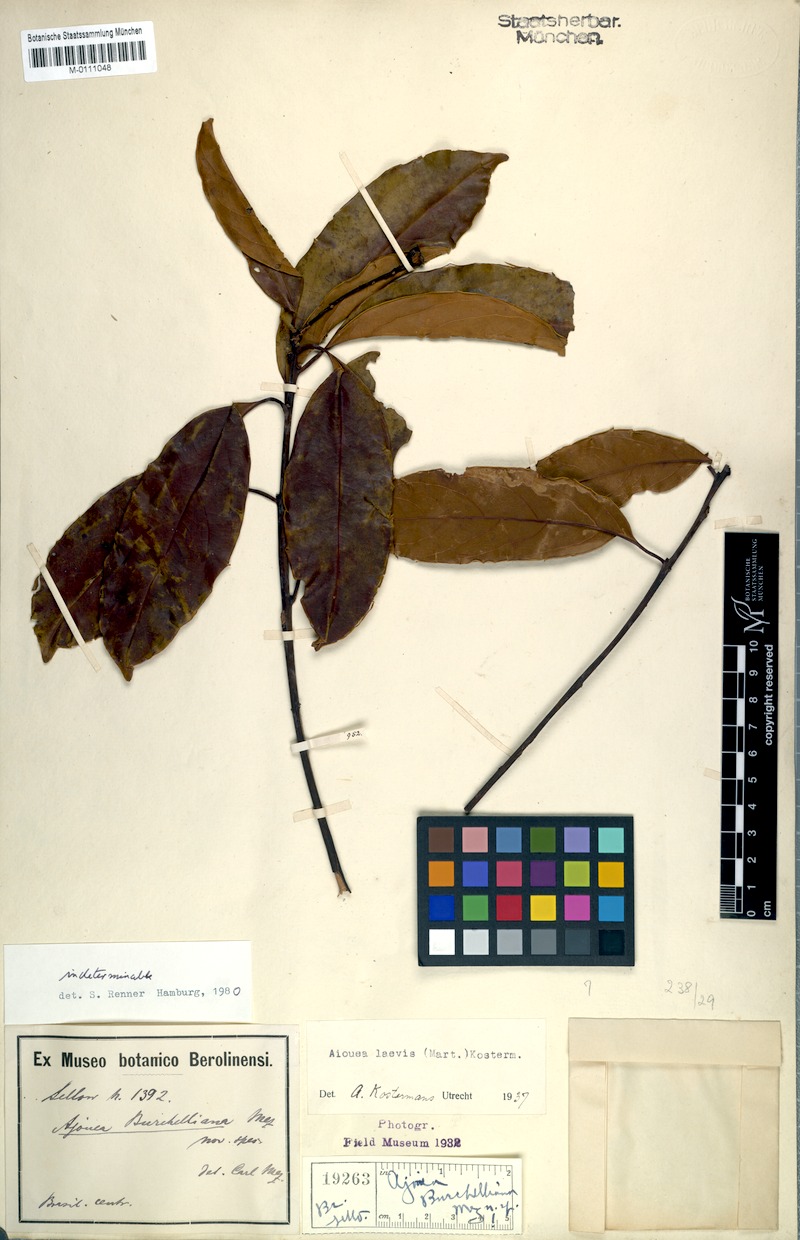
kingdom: Plantae
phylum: Tracheophyta
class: Magnoliopsida
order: Laurales
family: Lauraceae
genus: Aiouea
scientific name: Aiouea laevis
